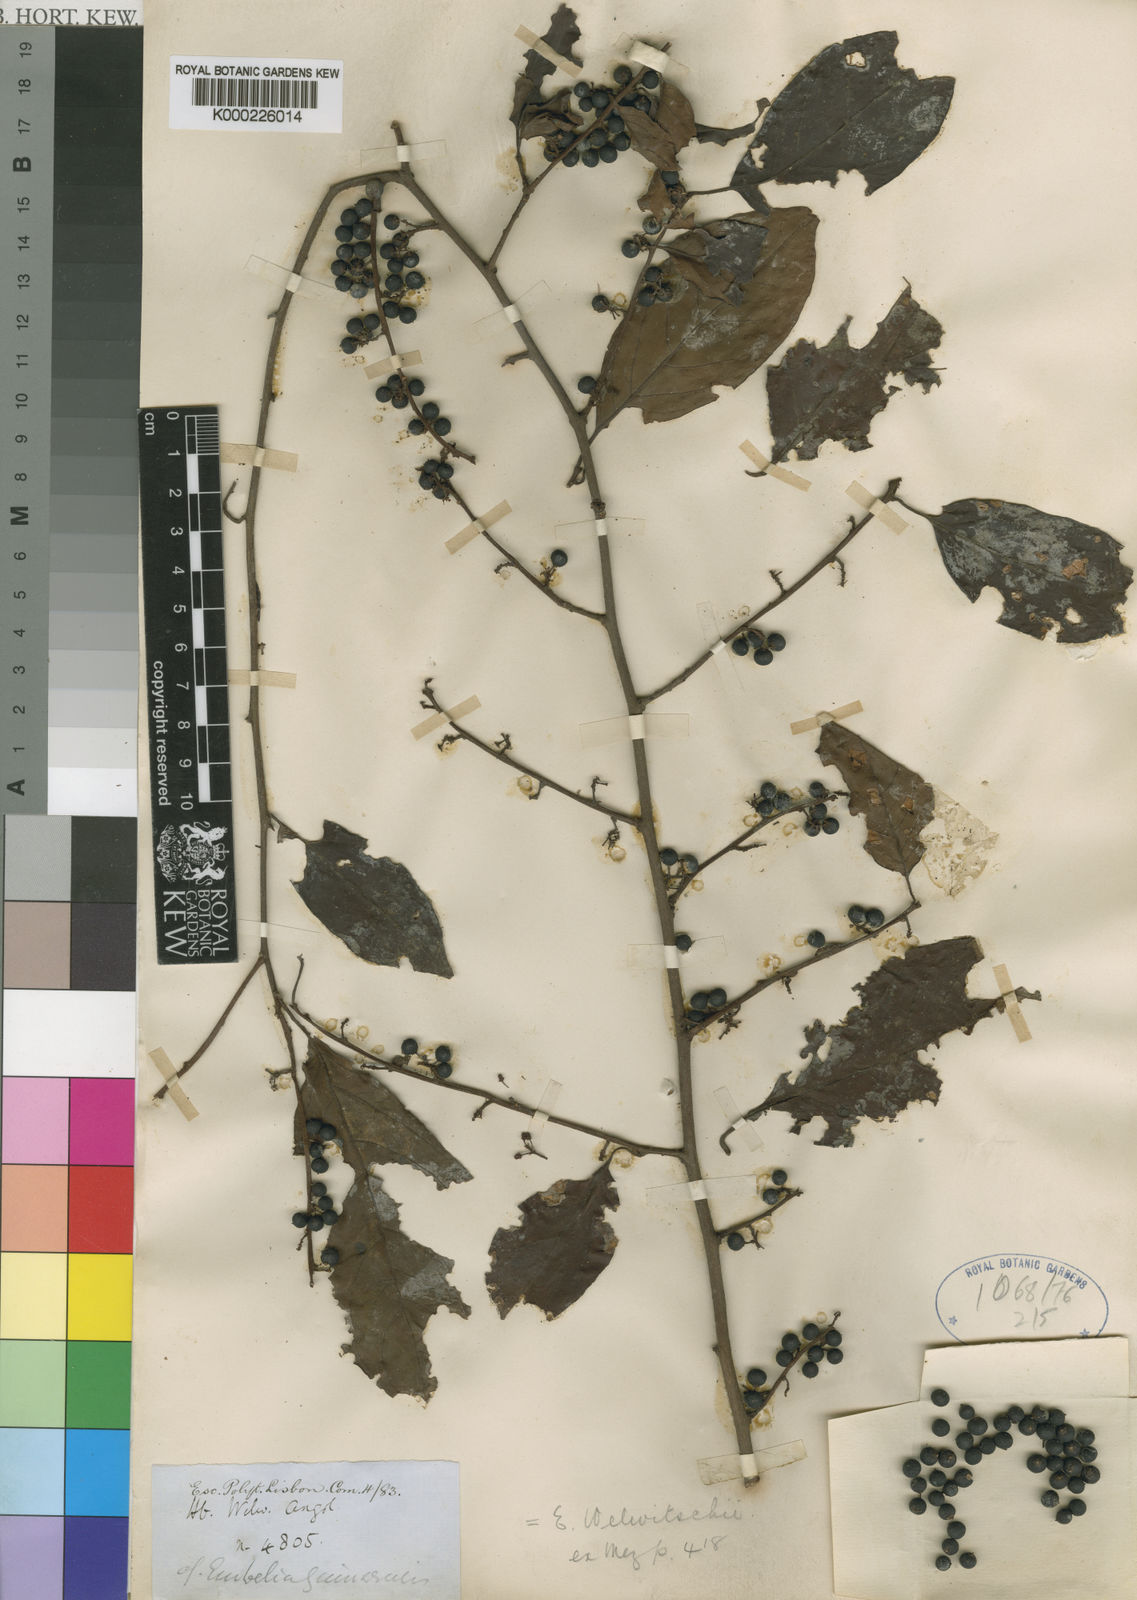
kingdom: Plantae
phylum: Tracheophyta
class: Magnoliopsida
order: Ericales
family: Primulaceae
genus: Embelia
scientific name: Embelia welwitschii
